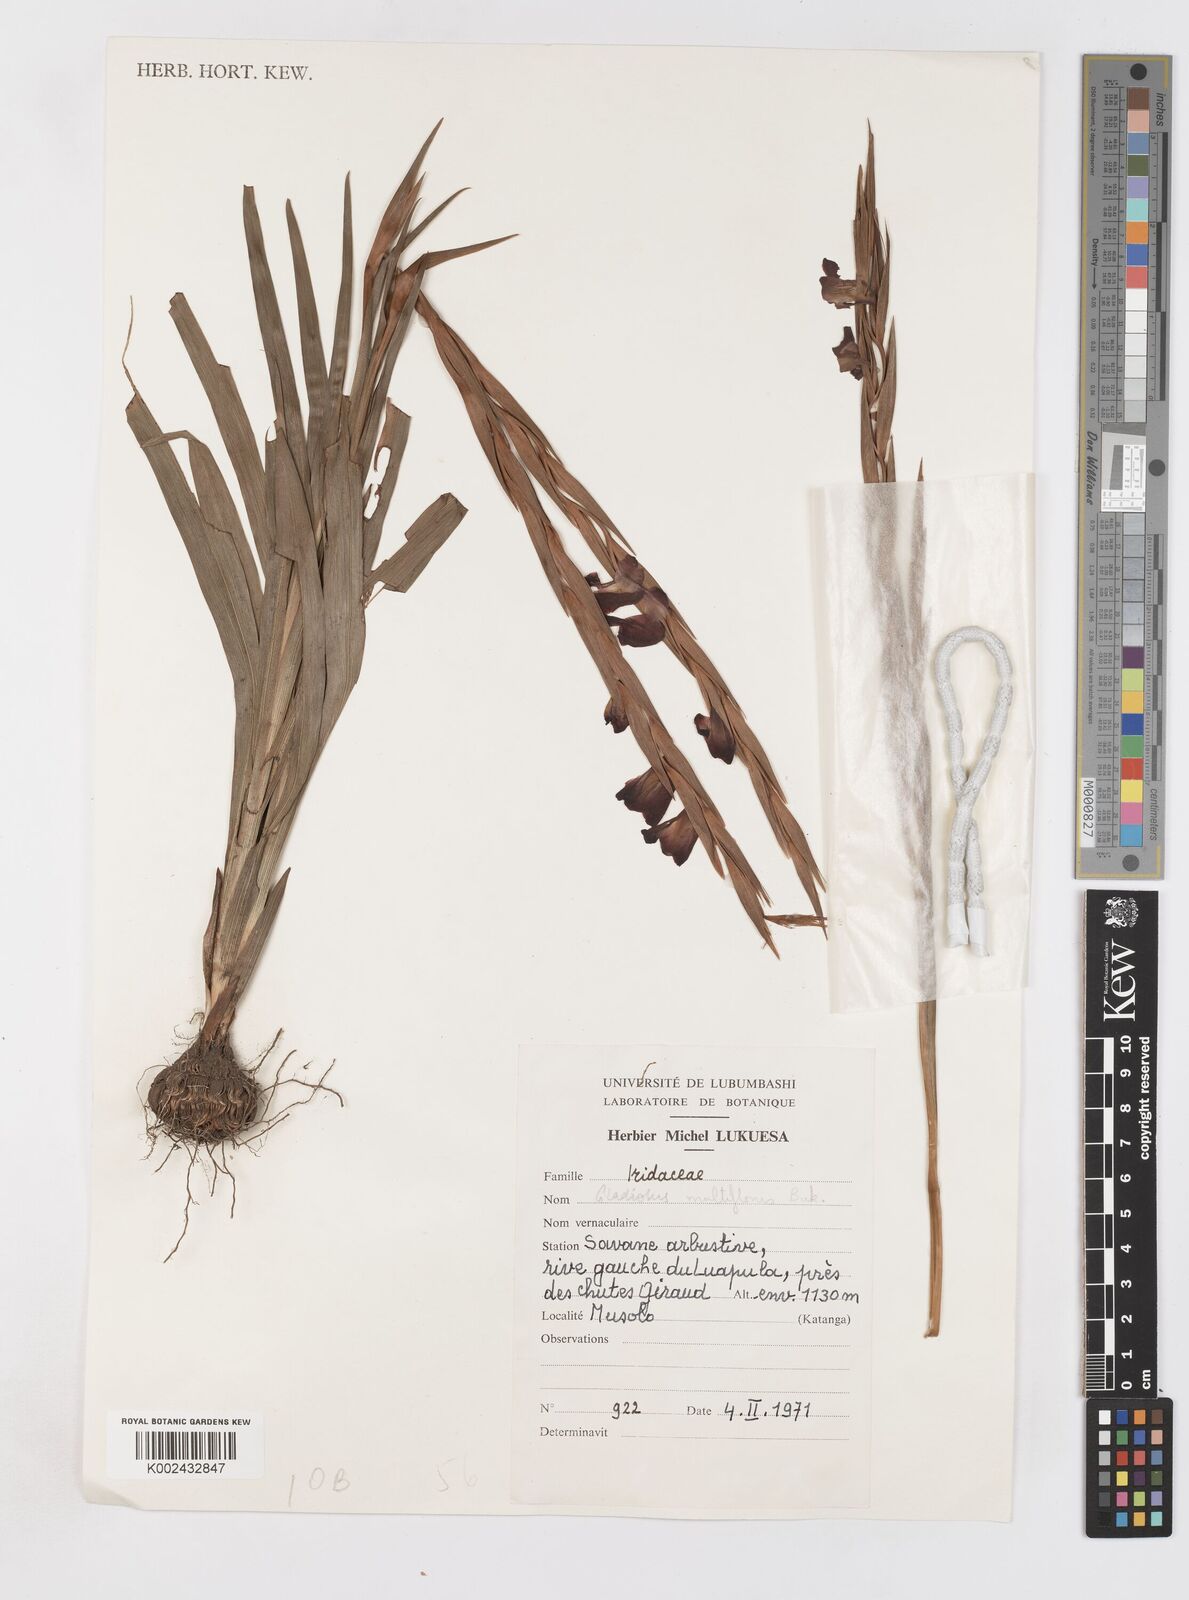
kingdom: Plantae
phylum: Tracheophyta
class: Liliopsida
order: Asparagales
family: Iridaceae
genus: Gladiolus
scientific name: Gladiolus gregarius
